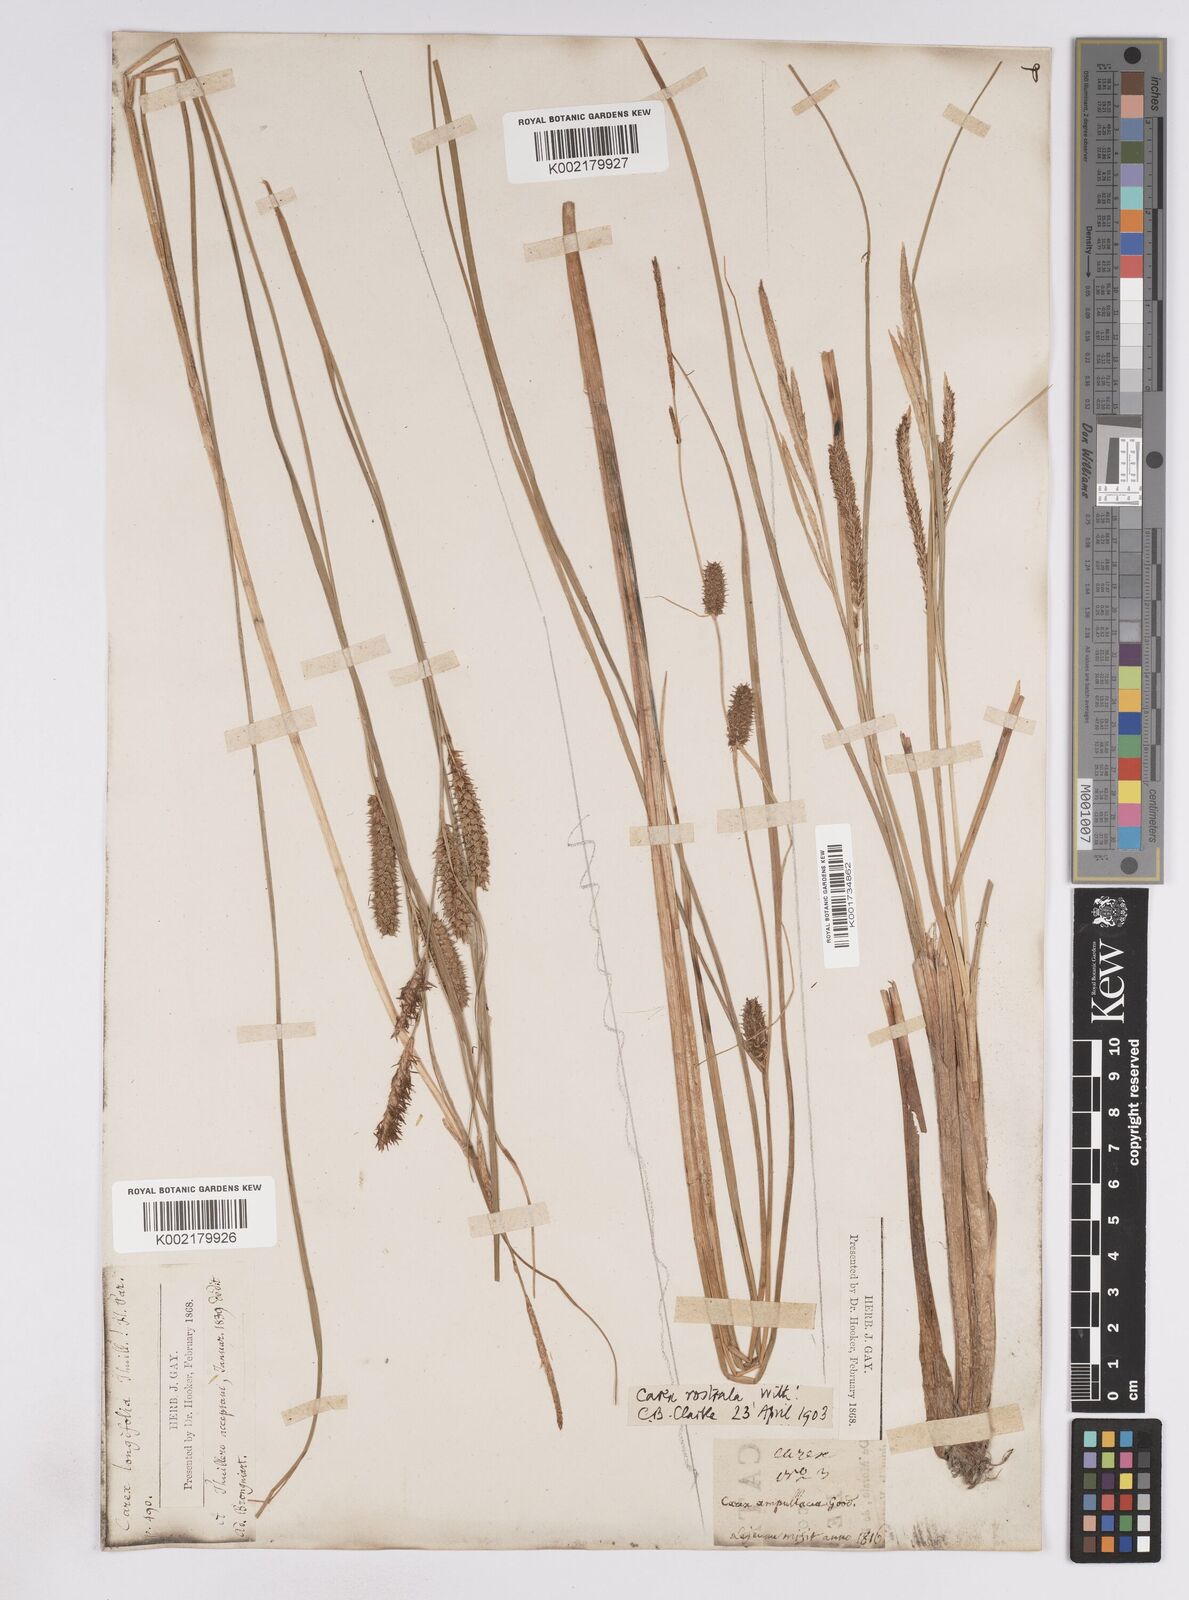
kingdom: Plantae
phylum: Tracheophyta
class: Liliopsida
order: Poales
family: Cyperaceae
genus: Carex
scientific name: Carex rostrata
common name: Bottle sedge
